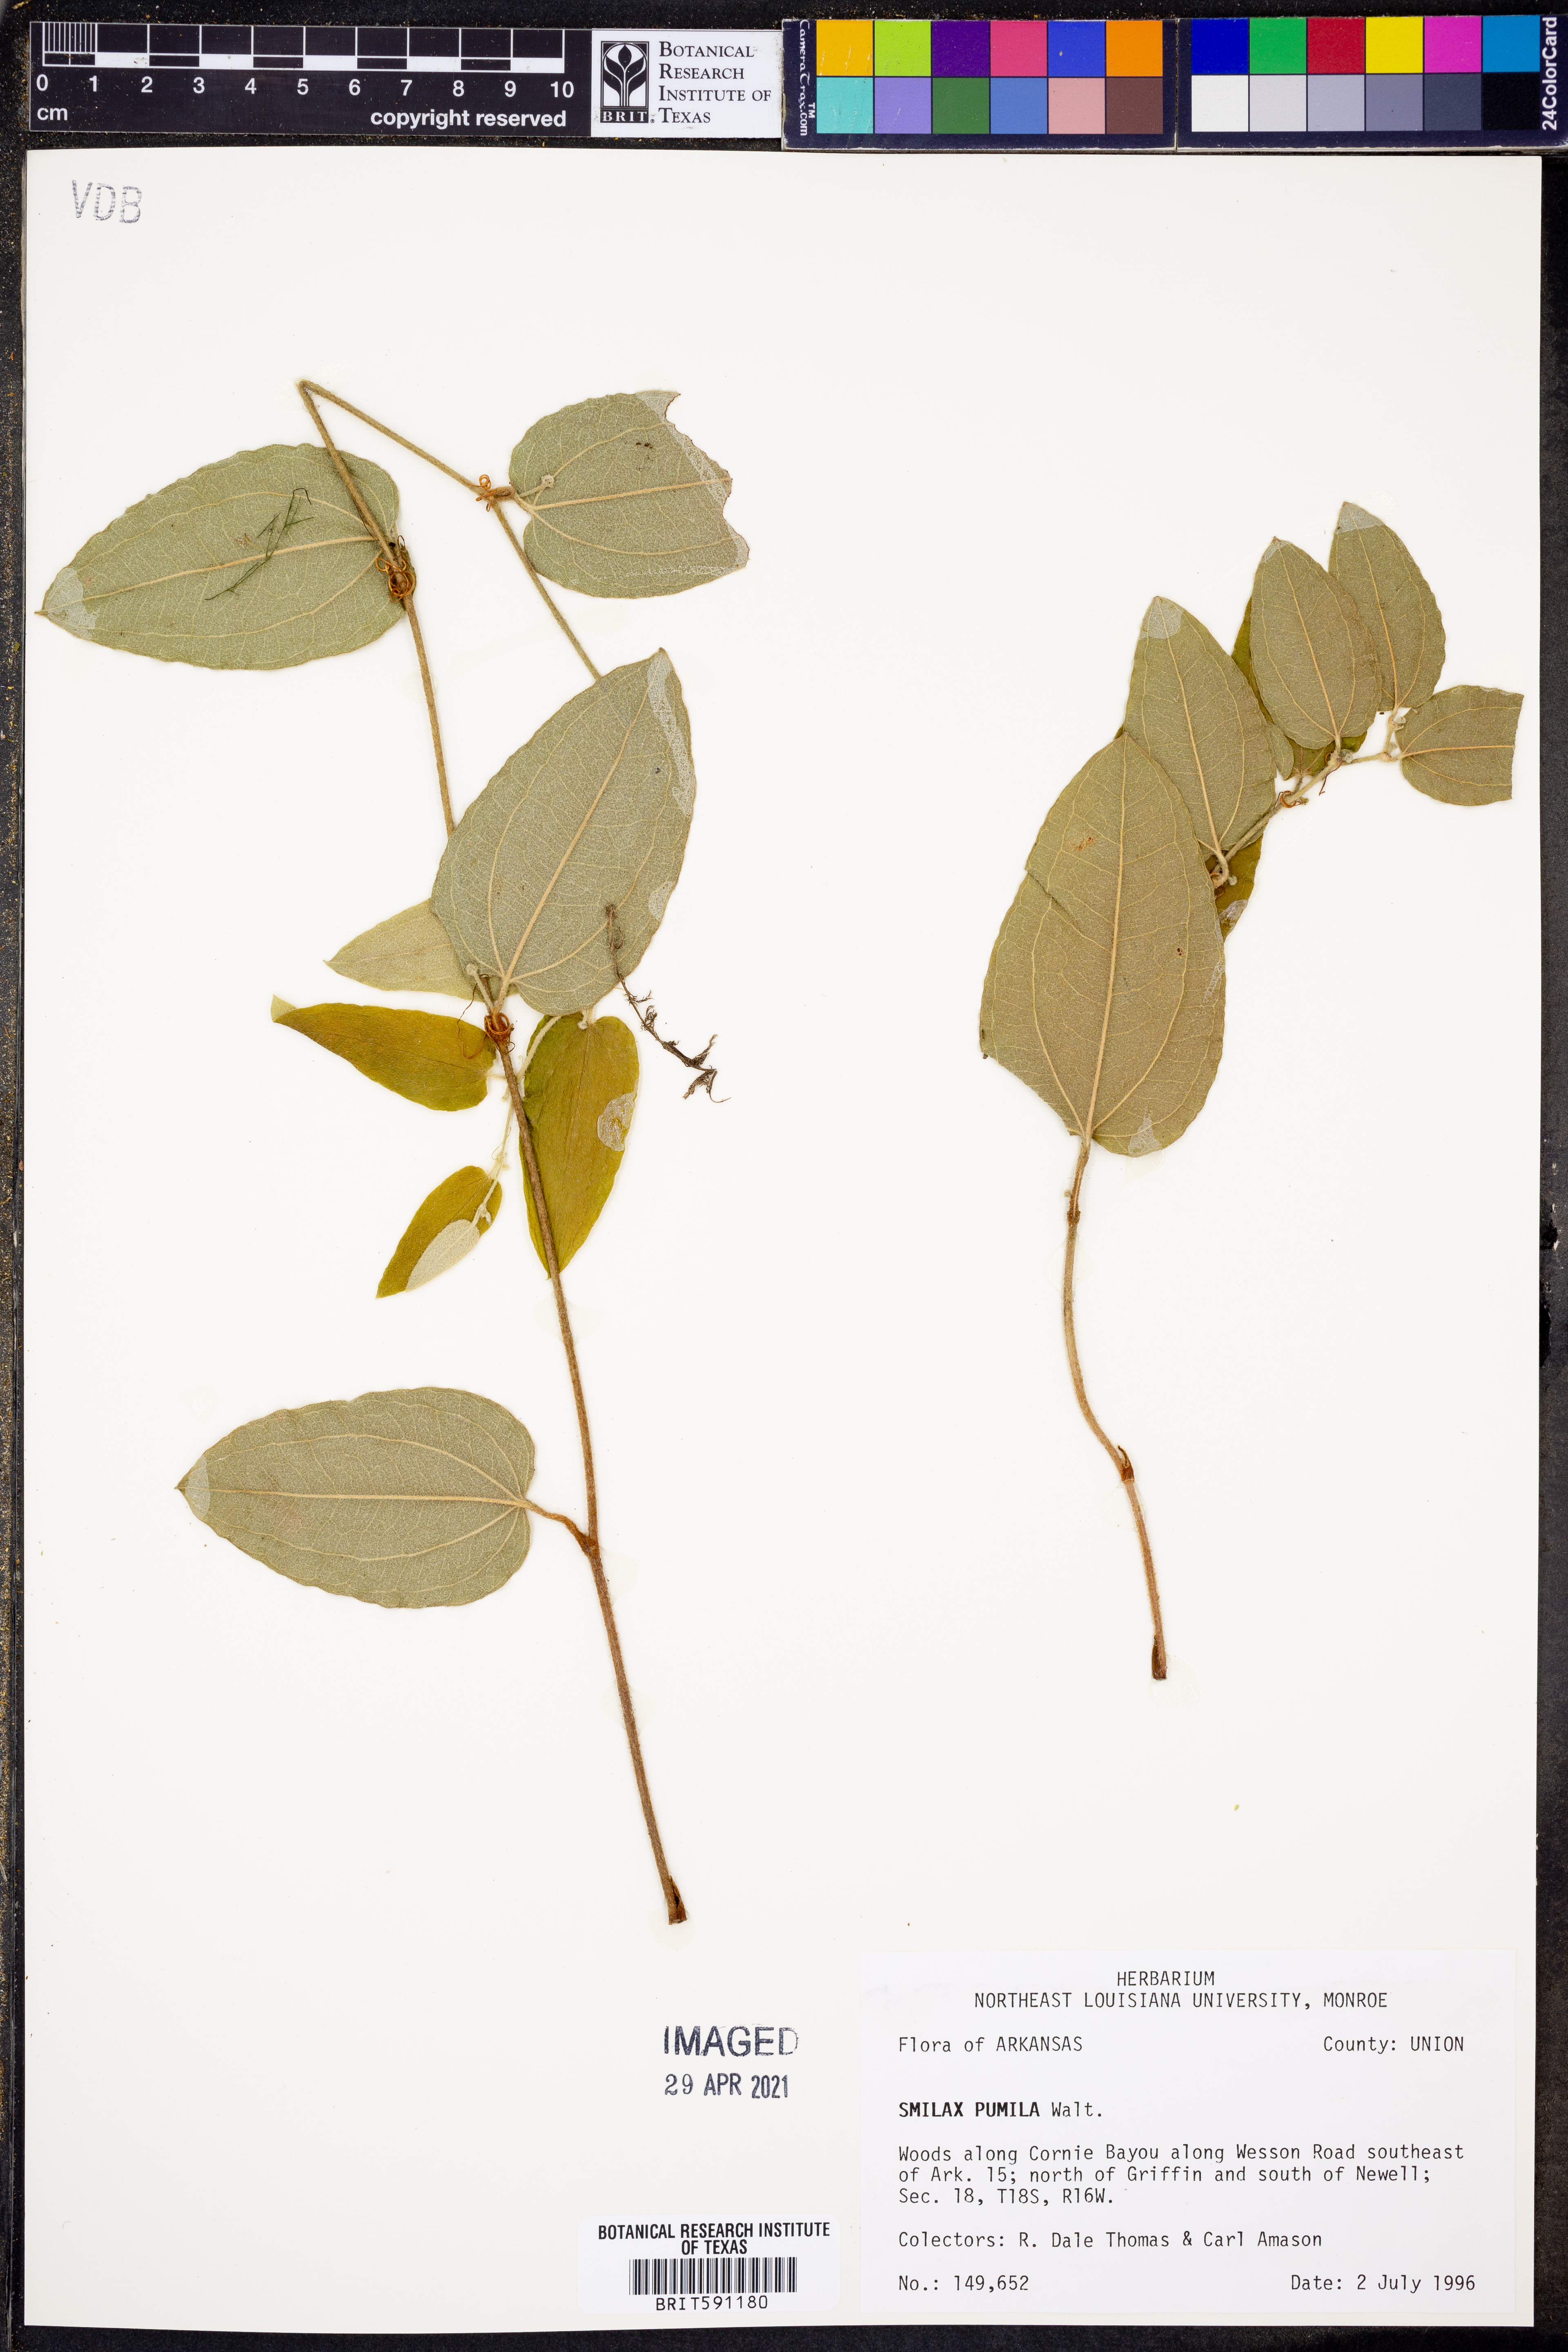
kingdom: Plantae
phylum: Tracheophyta
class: Liliopsida
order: Liliales
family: Smilacaceae
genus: Smilax
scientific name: Smilax pumila
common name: Sarsaparilla-vine
